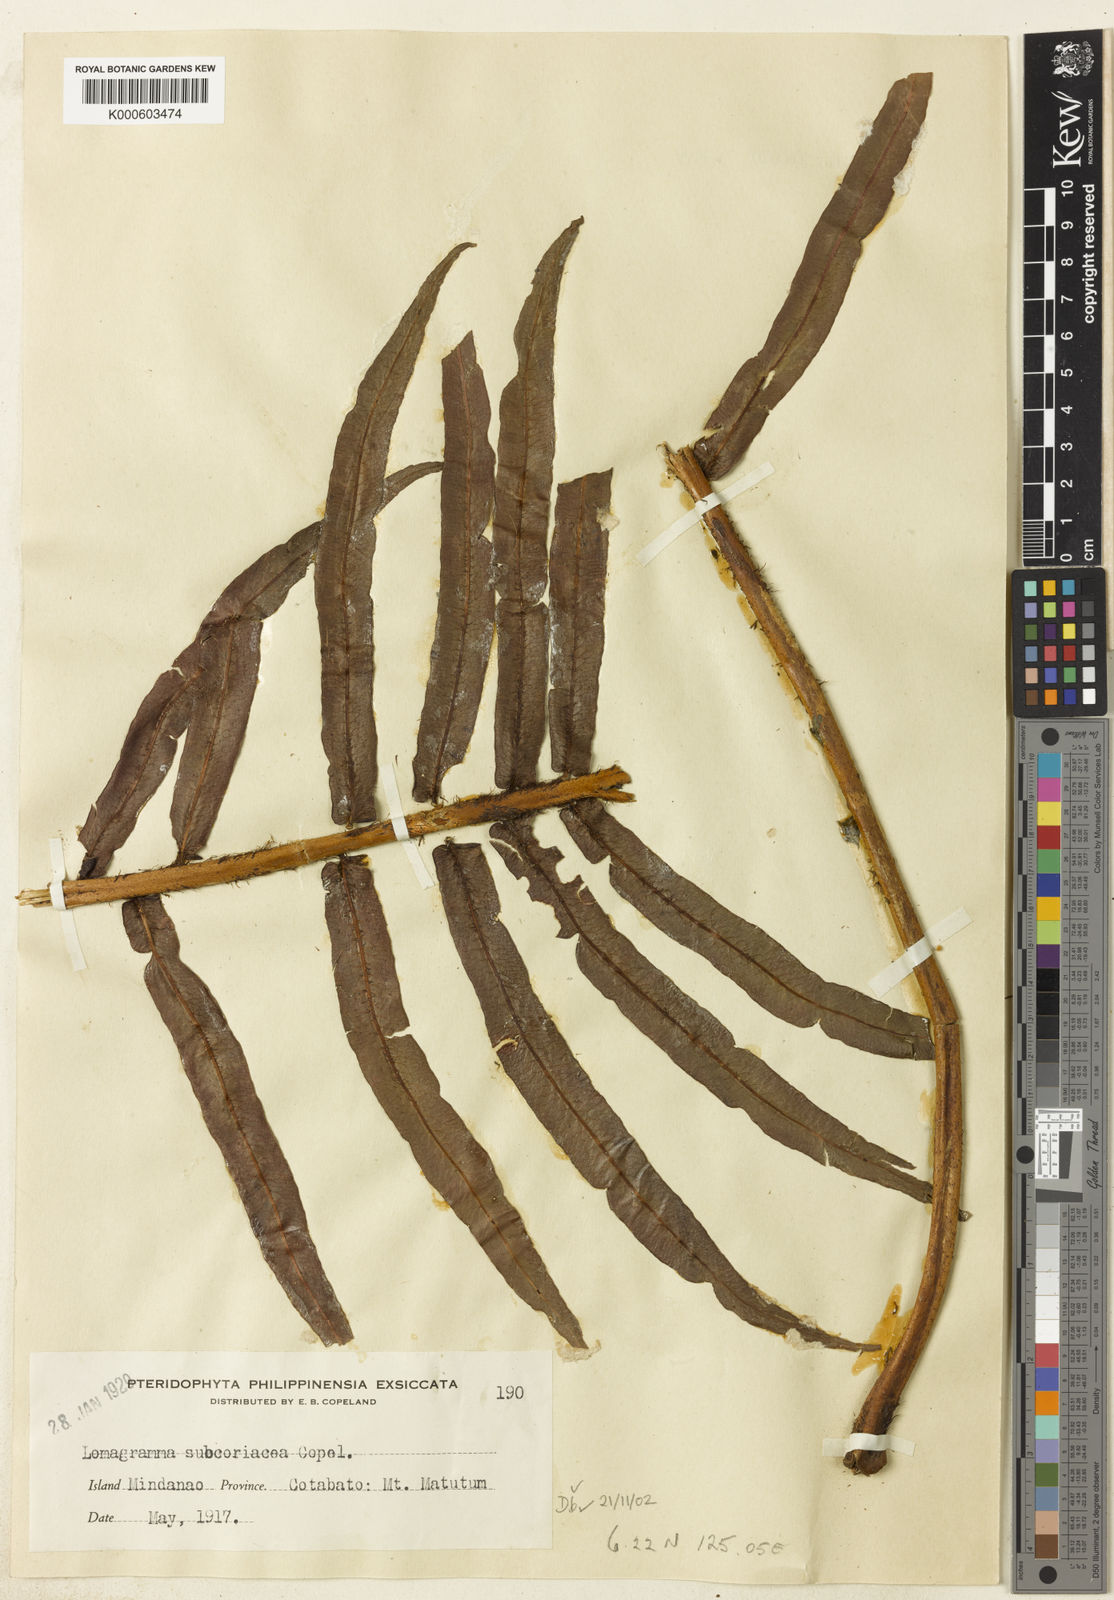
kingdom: Plantae
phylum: Tracheophyta
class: Polypodiopsida
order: Polypodiales
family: Dryopteridaceae
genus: Lomagramma
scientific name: Lomagramma pteroides
